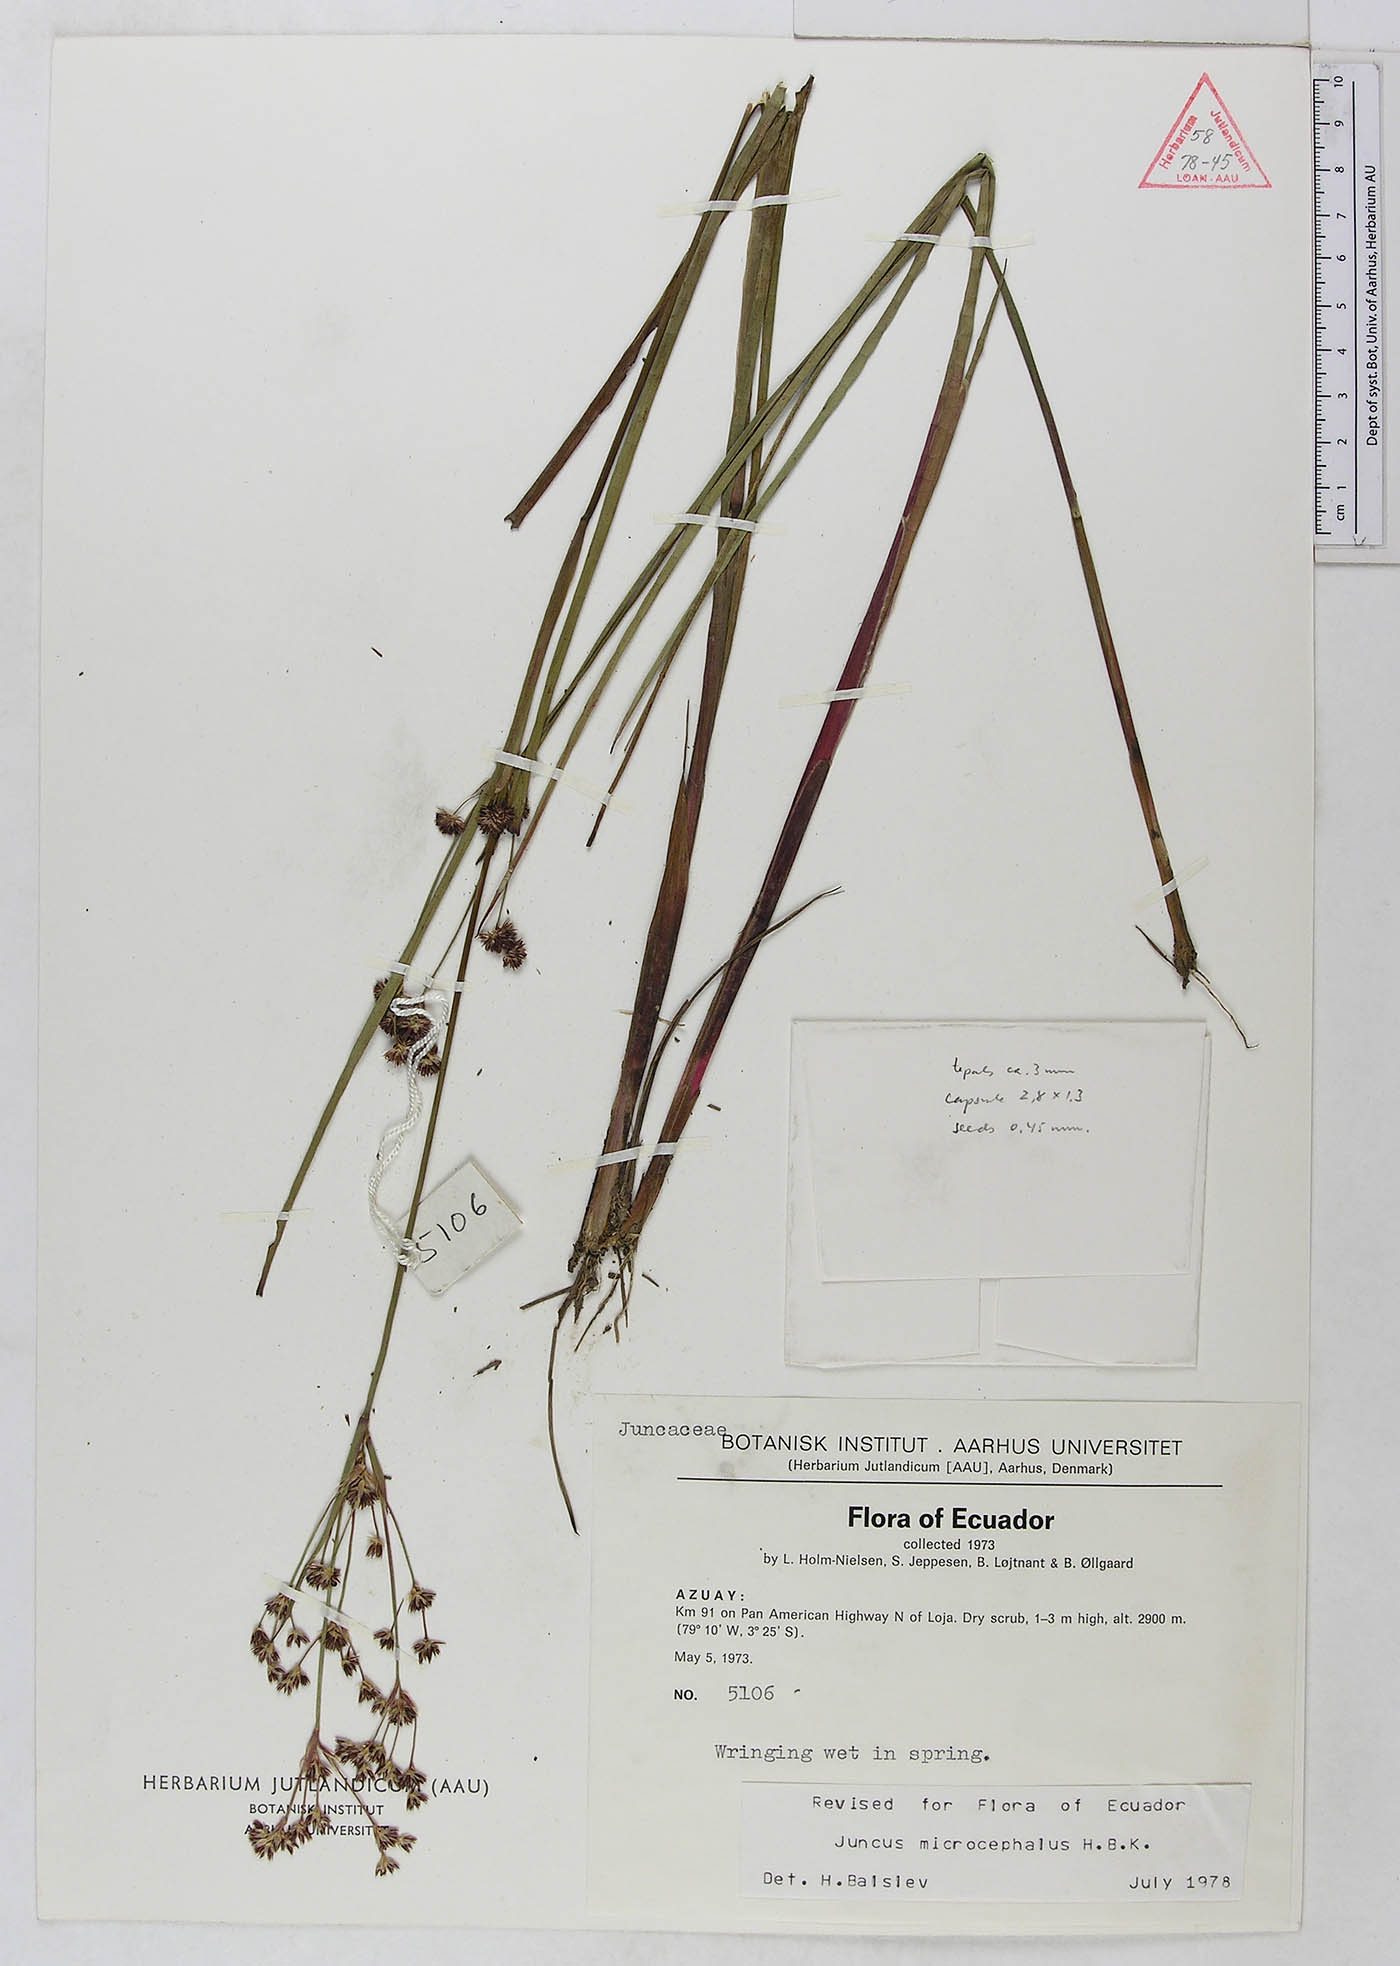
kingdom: Plantae
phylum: Tracheophyta
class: Liliopsida
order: Poales
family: Juncaceae
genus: Juncus
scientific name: Juncus microcephalus
